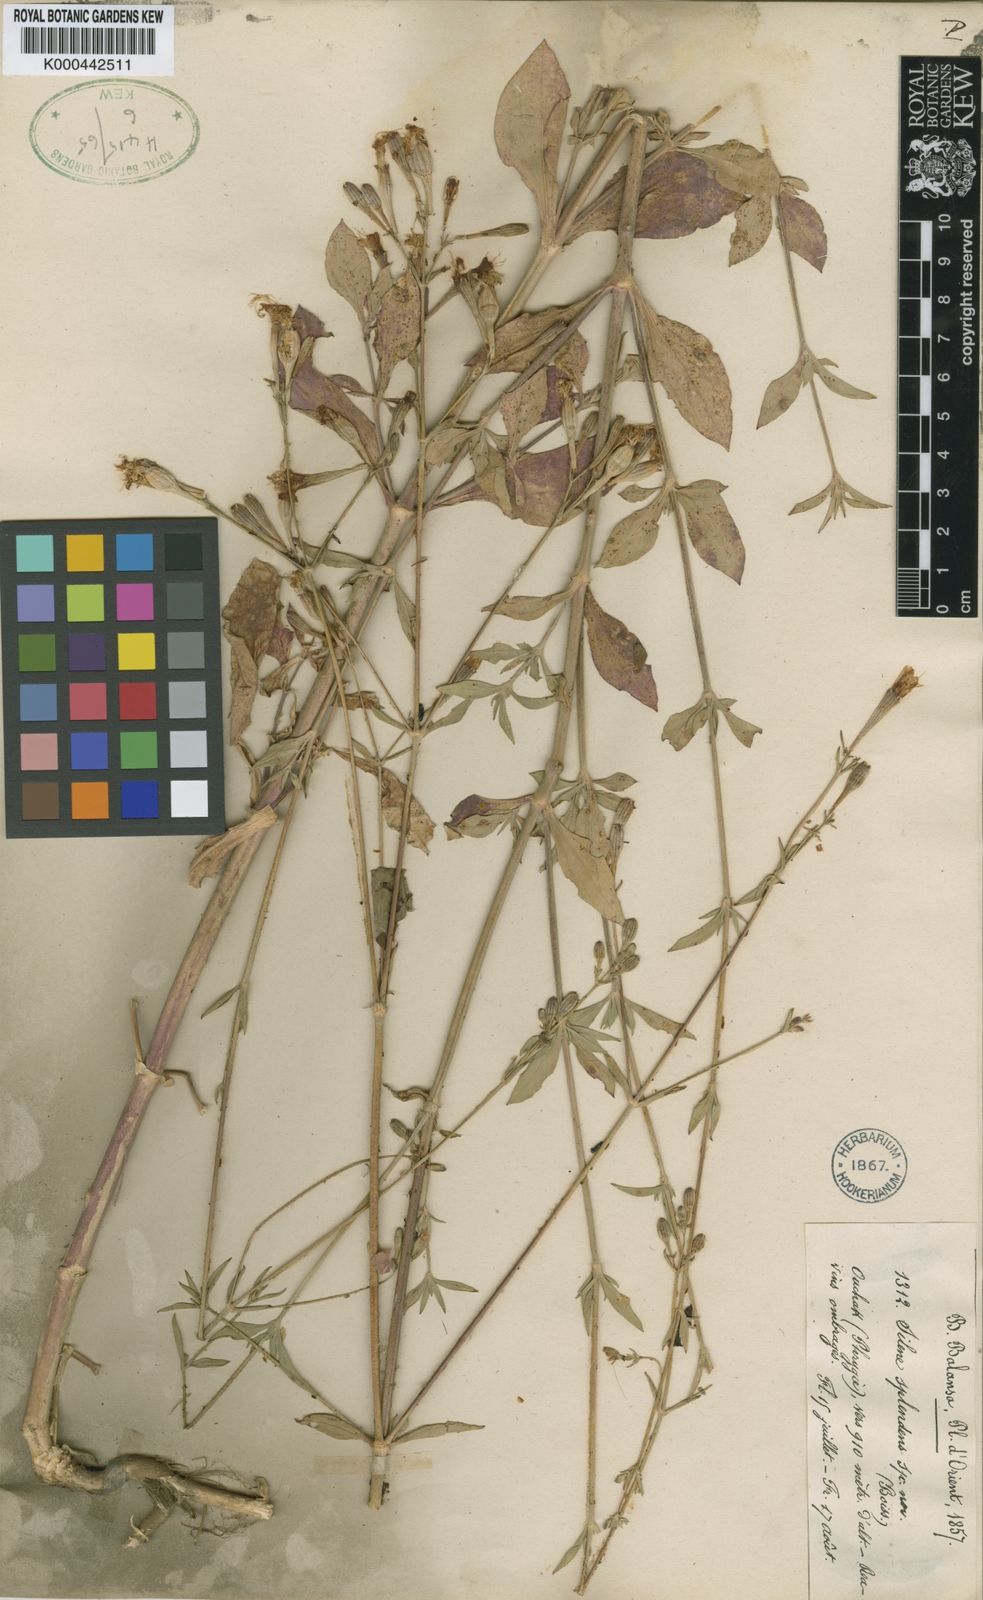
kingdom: Plantae
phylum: Tracheophyta
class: Magnoliopsida
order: Caryophyllales
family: Caryophyllaceae
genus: Silene
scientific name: Silene splendens
